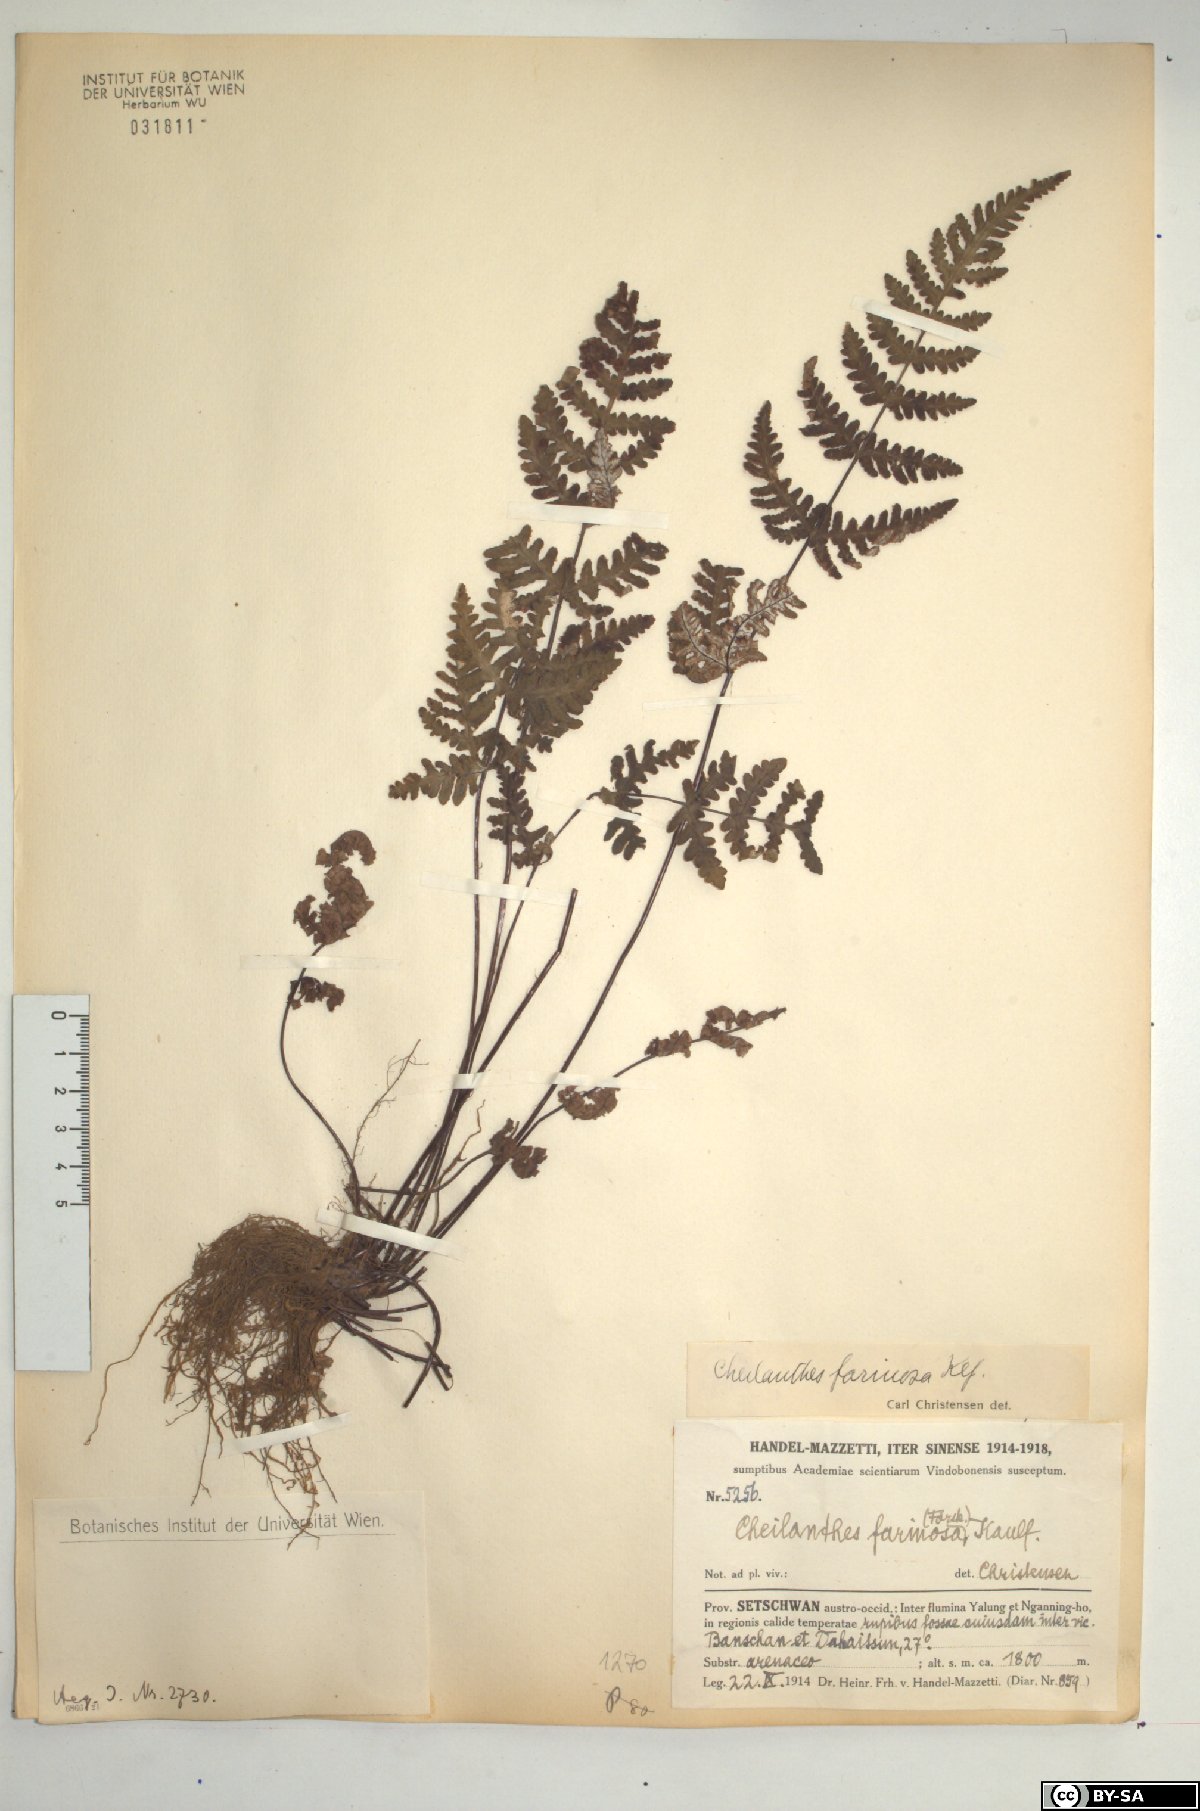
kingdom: Plantae
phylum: Tracheophyta
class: Polypodiopsida
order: Polypodiales
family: Pteridaceae
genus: Aleuritopteris
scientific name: Aleuritopteris farinosa
